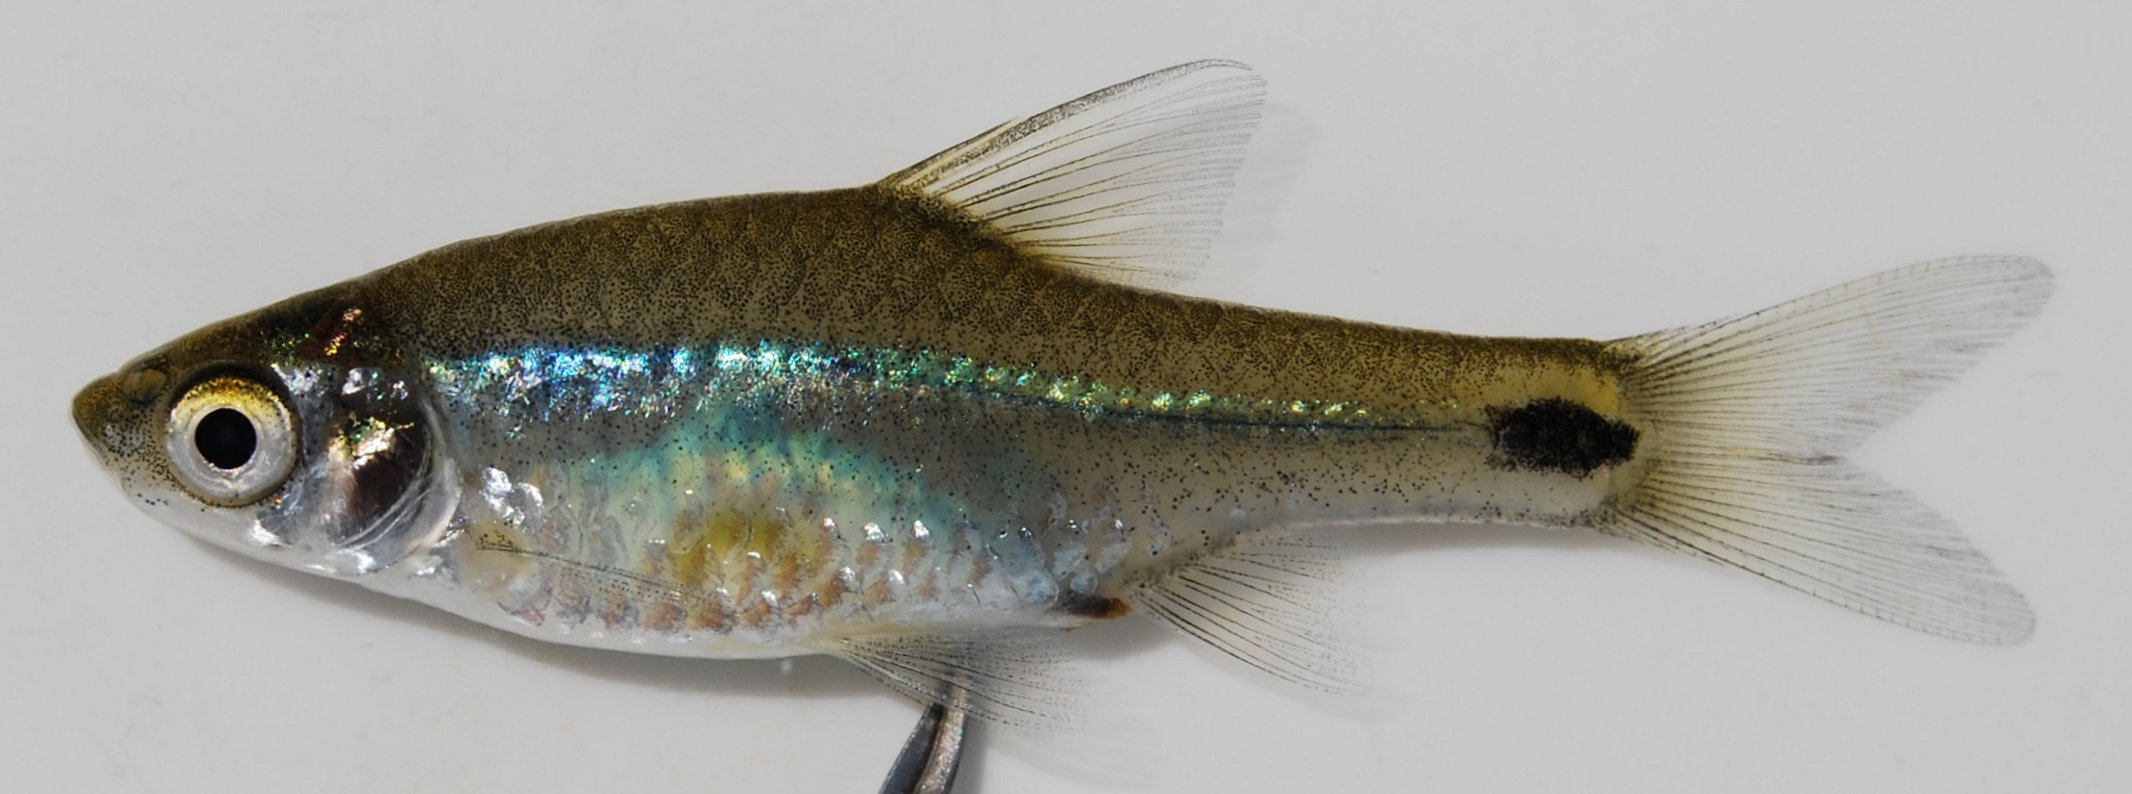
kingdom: Animalia
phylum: Chordata
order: Cypriniformes
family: Cyprinidae
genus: Enteromius
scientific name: Enteromius afrovernayi
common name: Spottail barb
